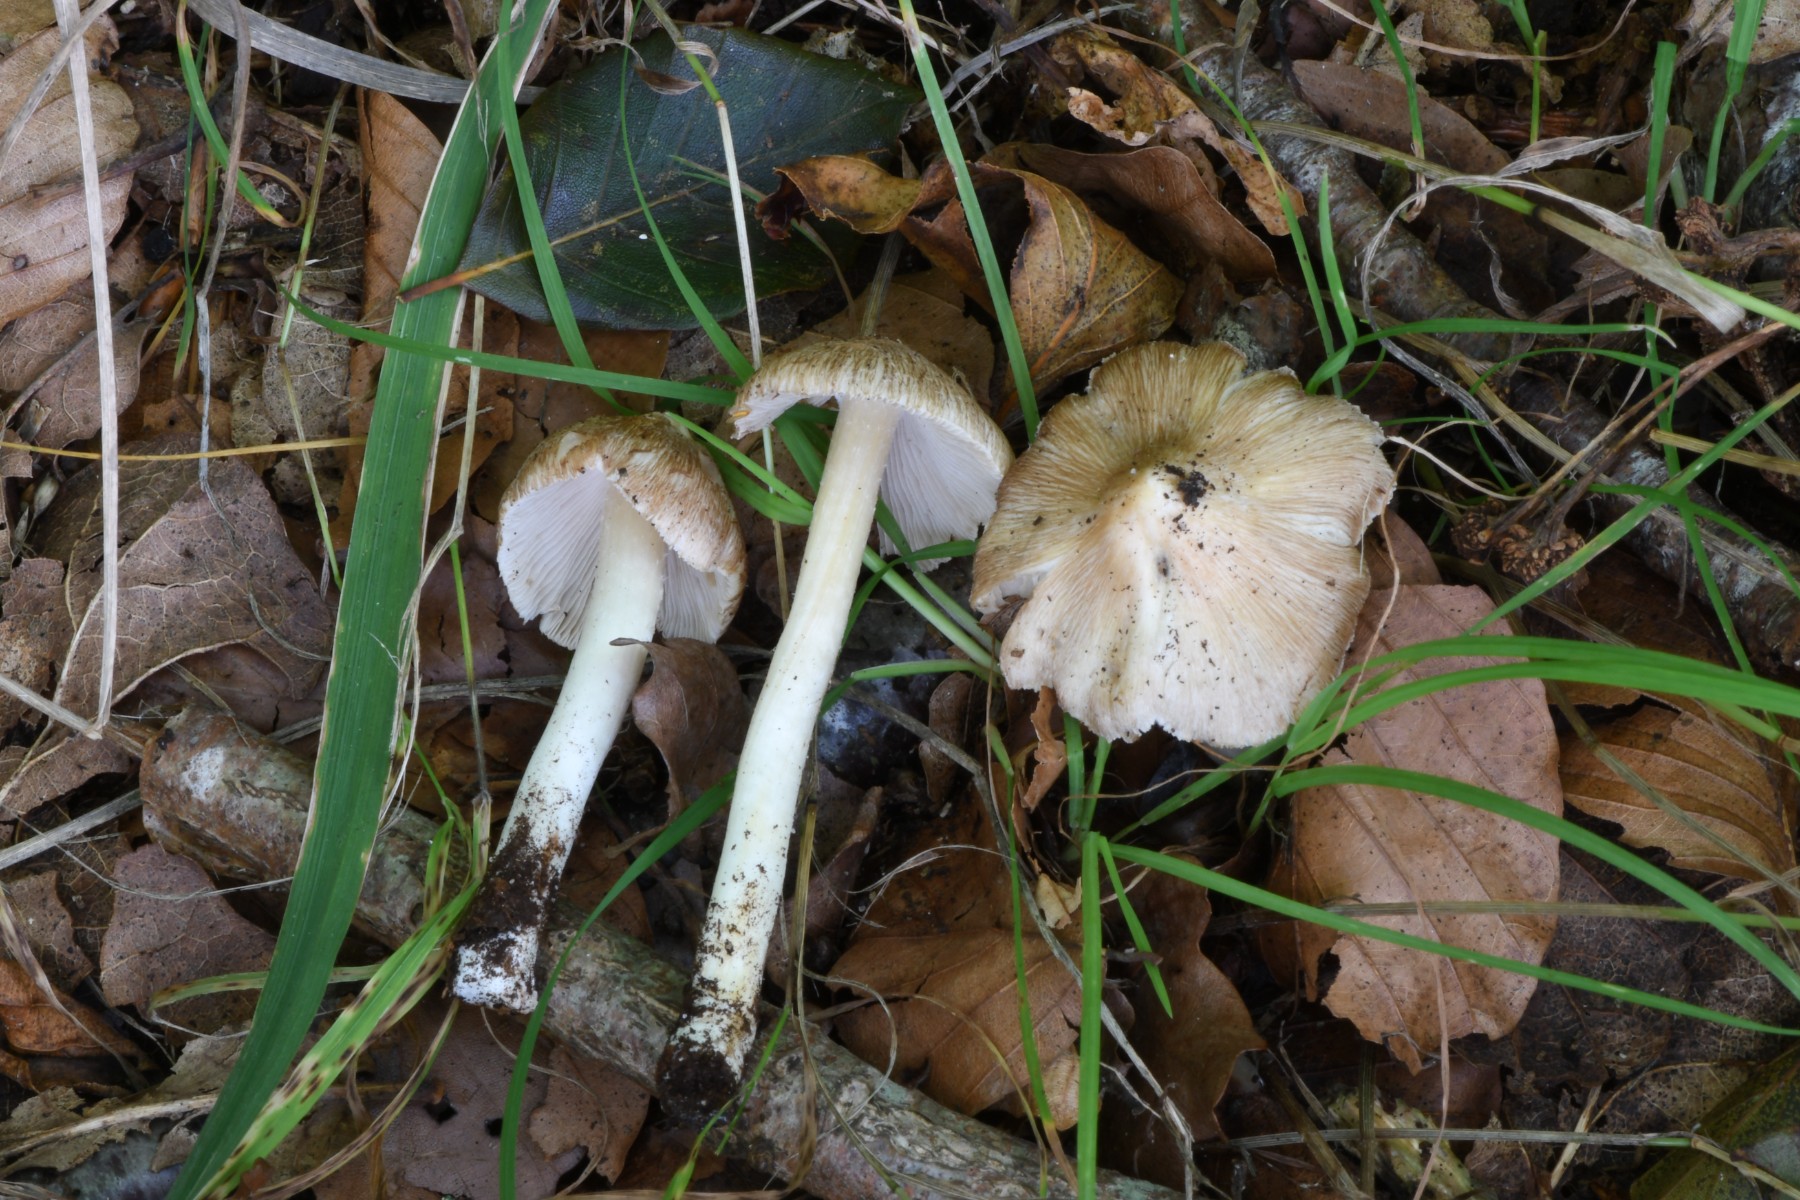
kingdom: Fungi
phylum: Basidiomycota
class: Agaricomycetes
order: Agaricales
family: Inocybaceae
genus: Pseudosperma
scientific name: Pseudosperma
